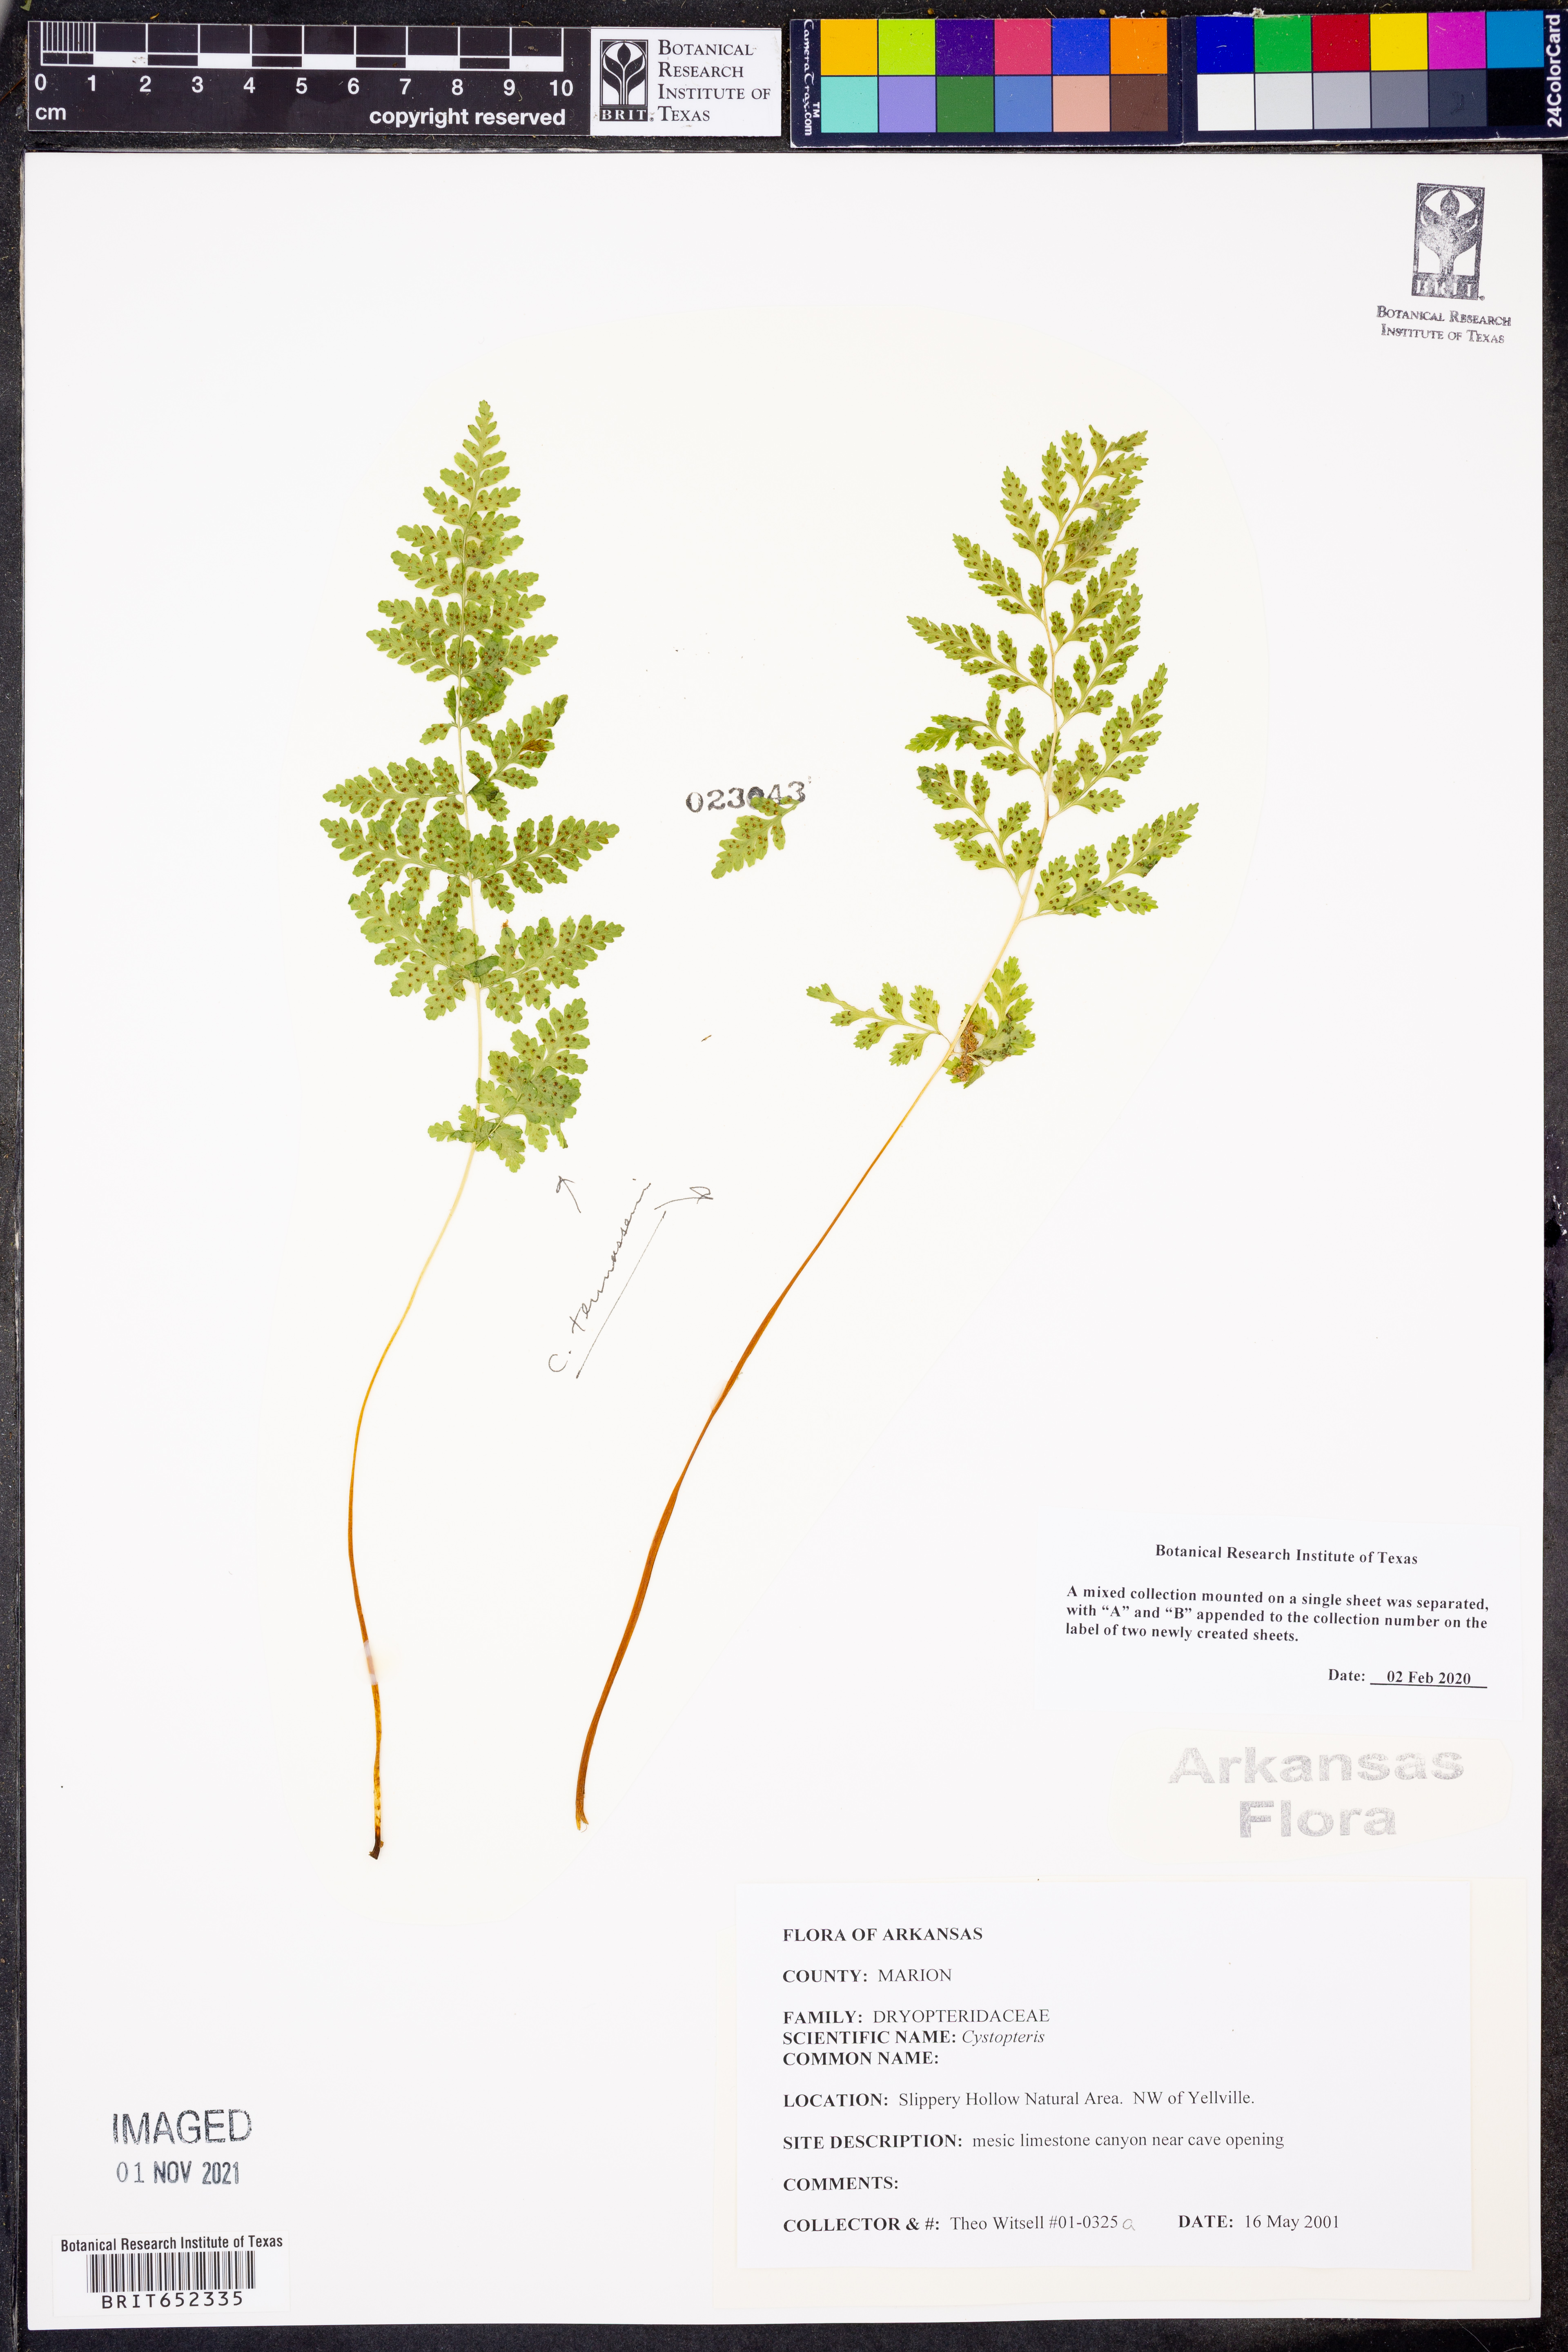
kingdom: Plantae
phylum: Tracheophyta
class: Polypodiopsida
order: Polypodiales
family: Cystopteridaceae
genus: Cystopteris
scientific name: Cystopteris tennesseensis
